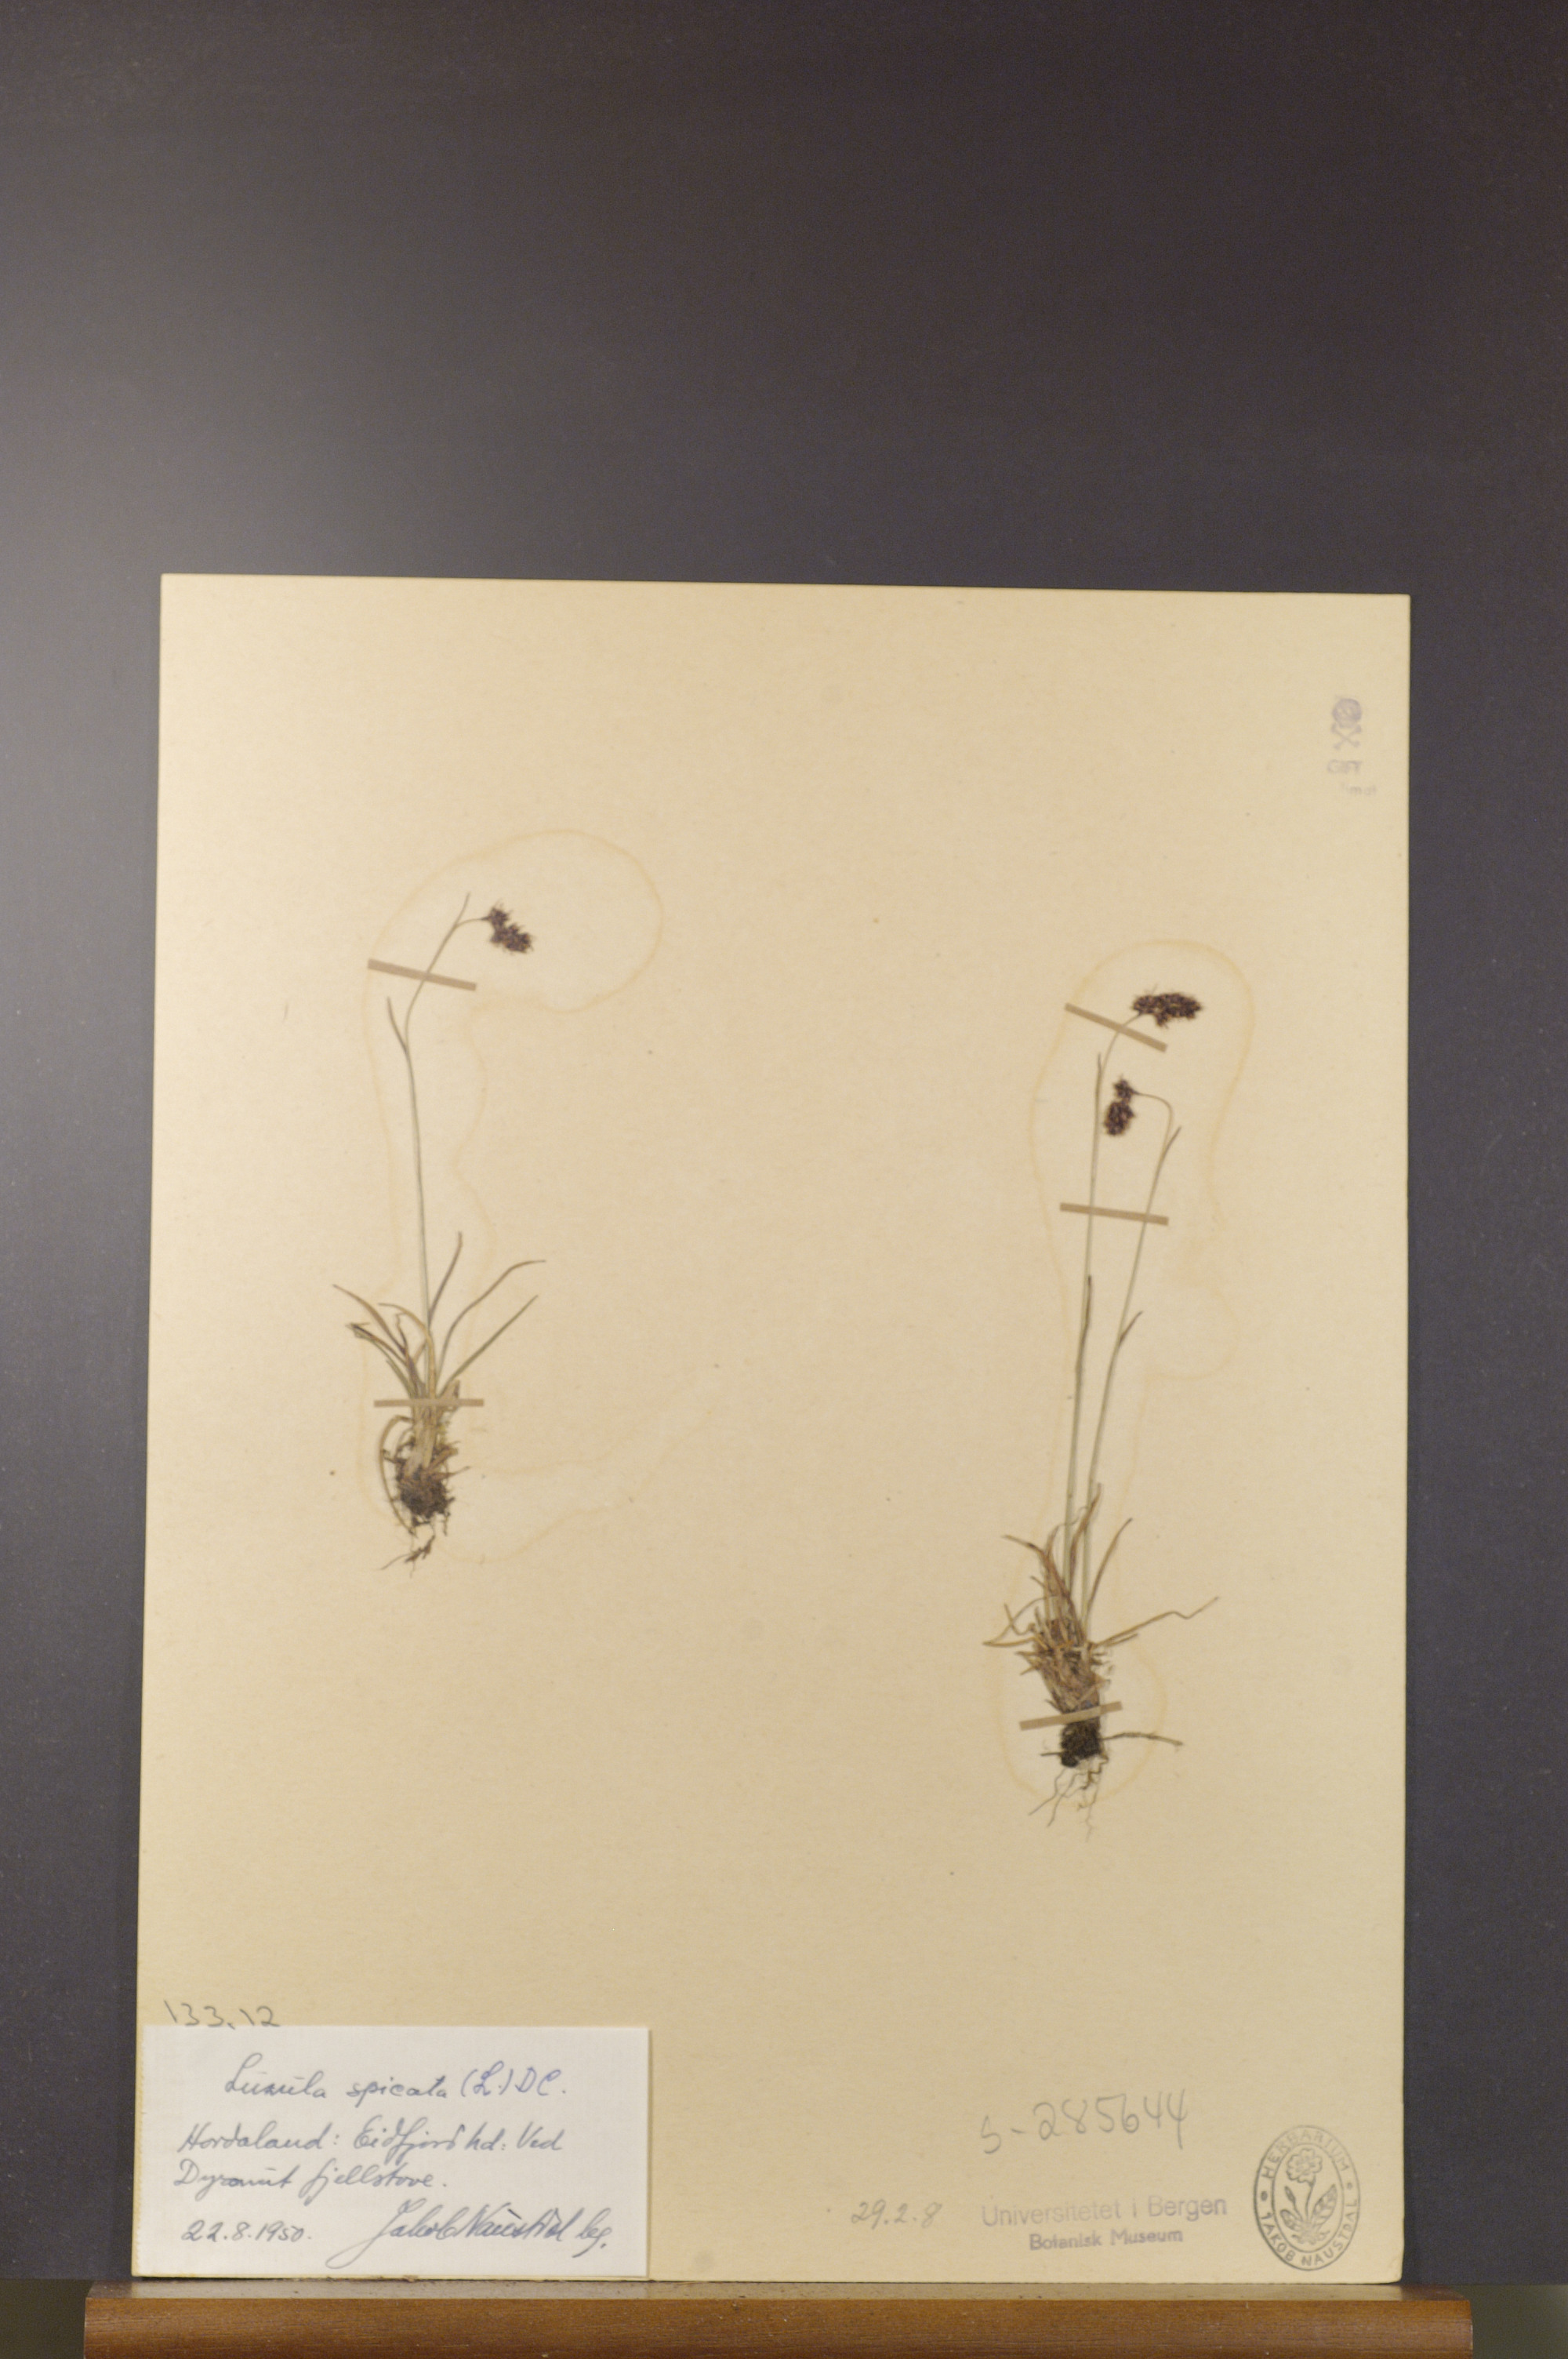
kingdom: Plantae
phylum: Tracheophyta
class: Liliopsida
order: Poales
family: Juncaceae
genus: Luzula
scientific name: Luzula spicata
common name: Spiked wood-rush
